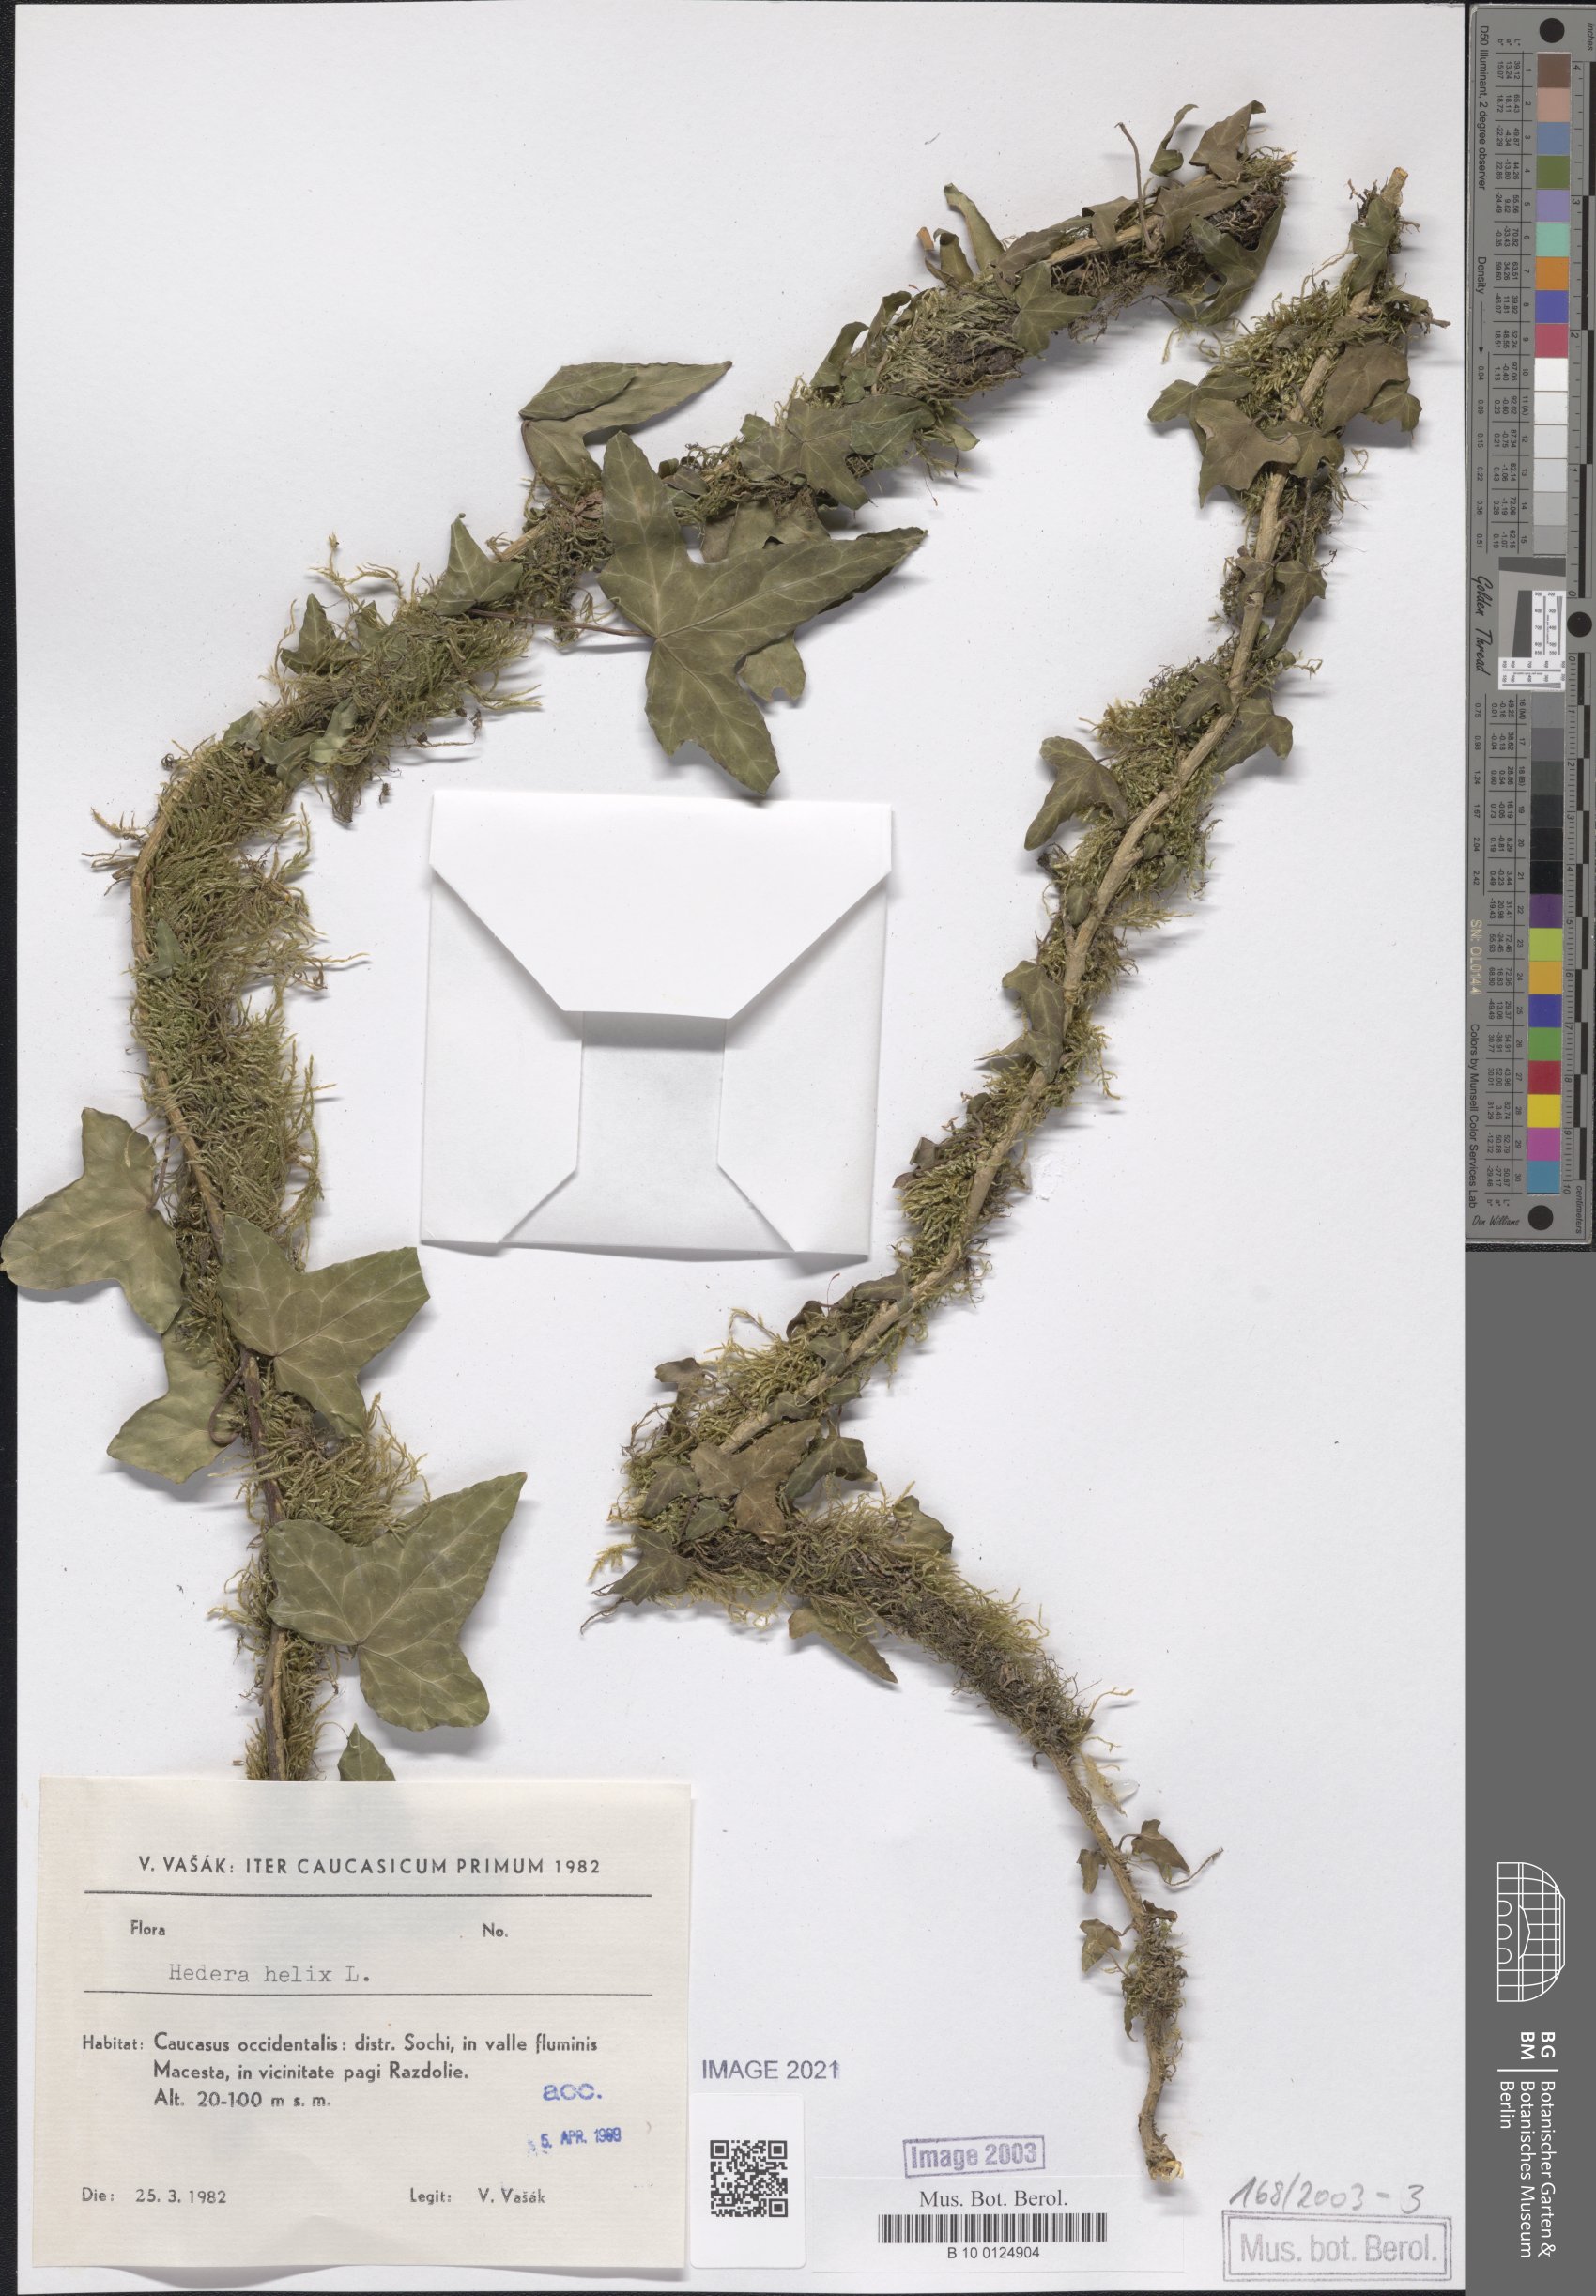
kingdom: Plantae
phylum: Tracheophyta
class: Magnoliopsida
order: Apiales
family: Araliaceae
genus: Hedera
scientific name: Hedera helix
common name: Ivy
